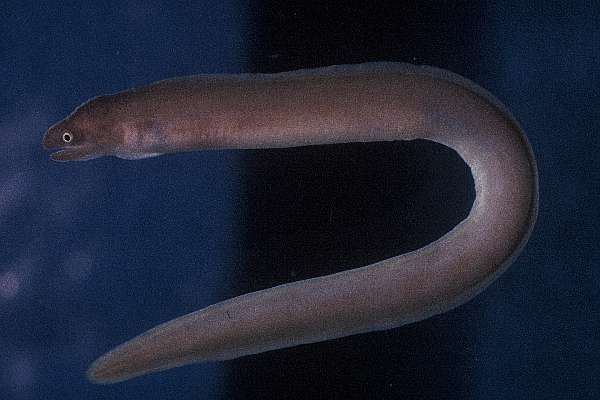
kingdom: Animalia
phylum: Chordata
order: Anguilliformes
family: Muraenidae
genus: Gymnothorax
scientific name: Gymnothorax pindae
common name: Pinda moray
